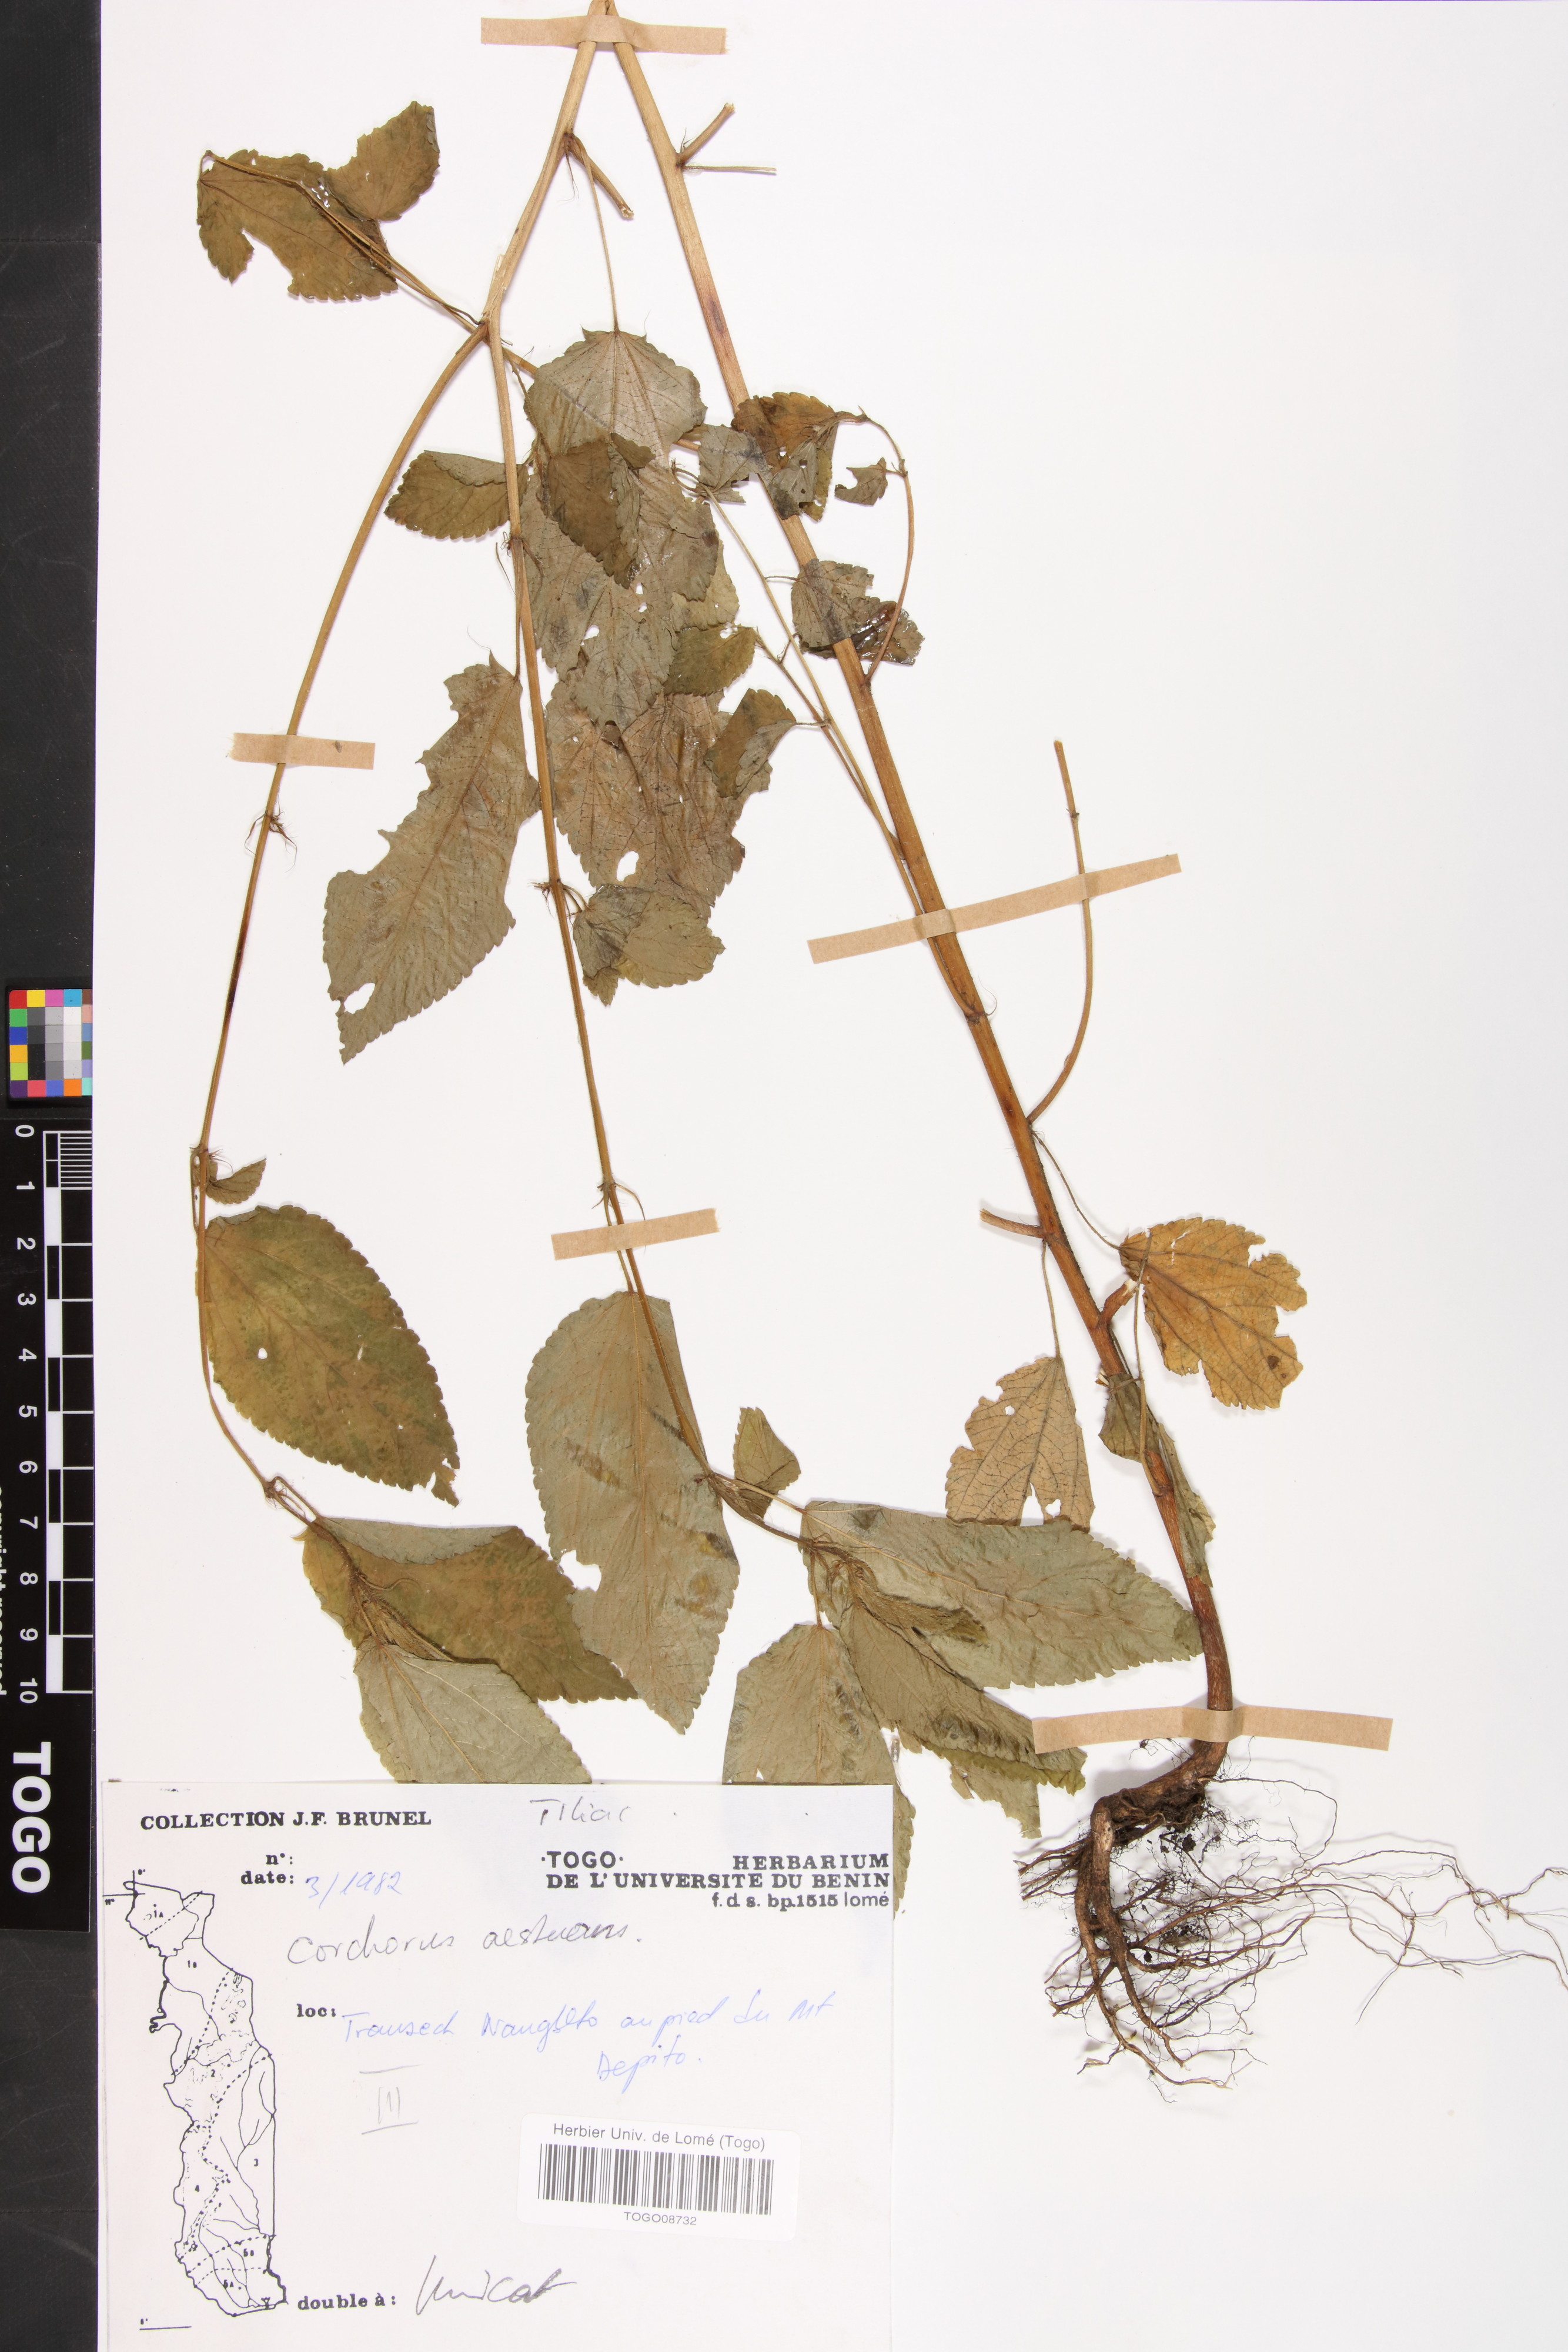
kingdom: Plantae
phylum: Tracheophyta
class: Magnoliopsida
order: Malvales
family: Malvaceae
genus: Corchorus
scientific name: Corchorus aestuans
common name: Jute
